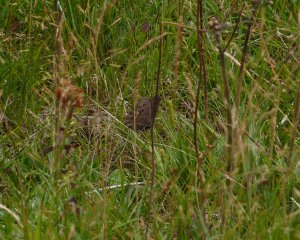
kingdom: Animalia
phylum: Arthropoda
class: Insecta
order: Lepidoptera
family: Nymphalidae
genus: Cercyonis
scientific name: Cercyonis pegala
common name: Common Wood-Nymph
